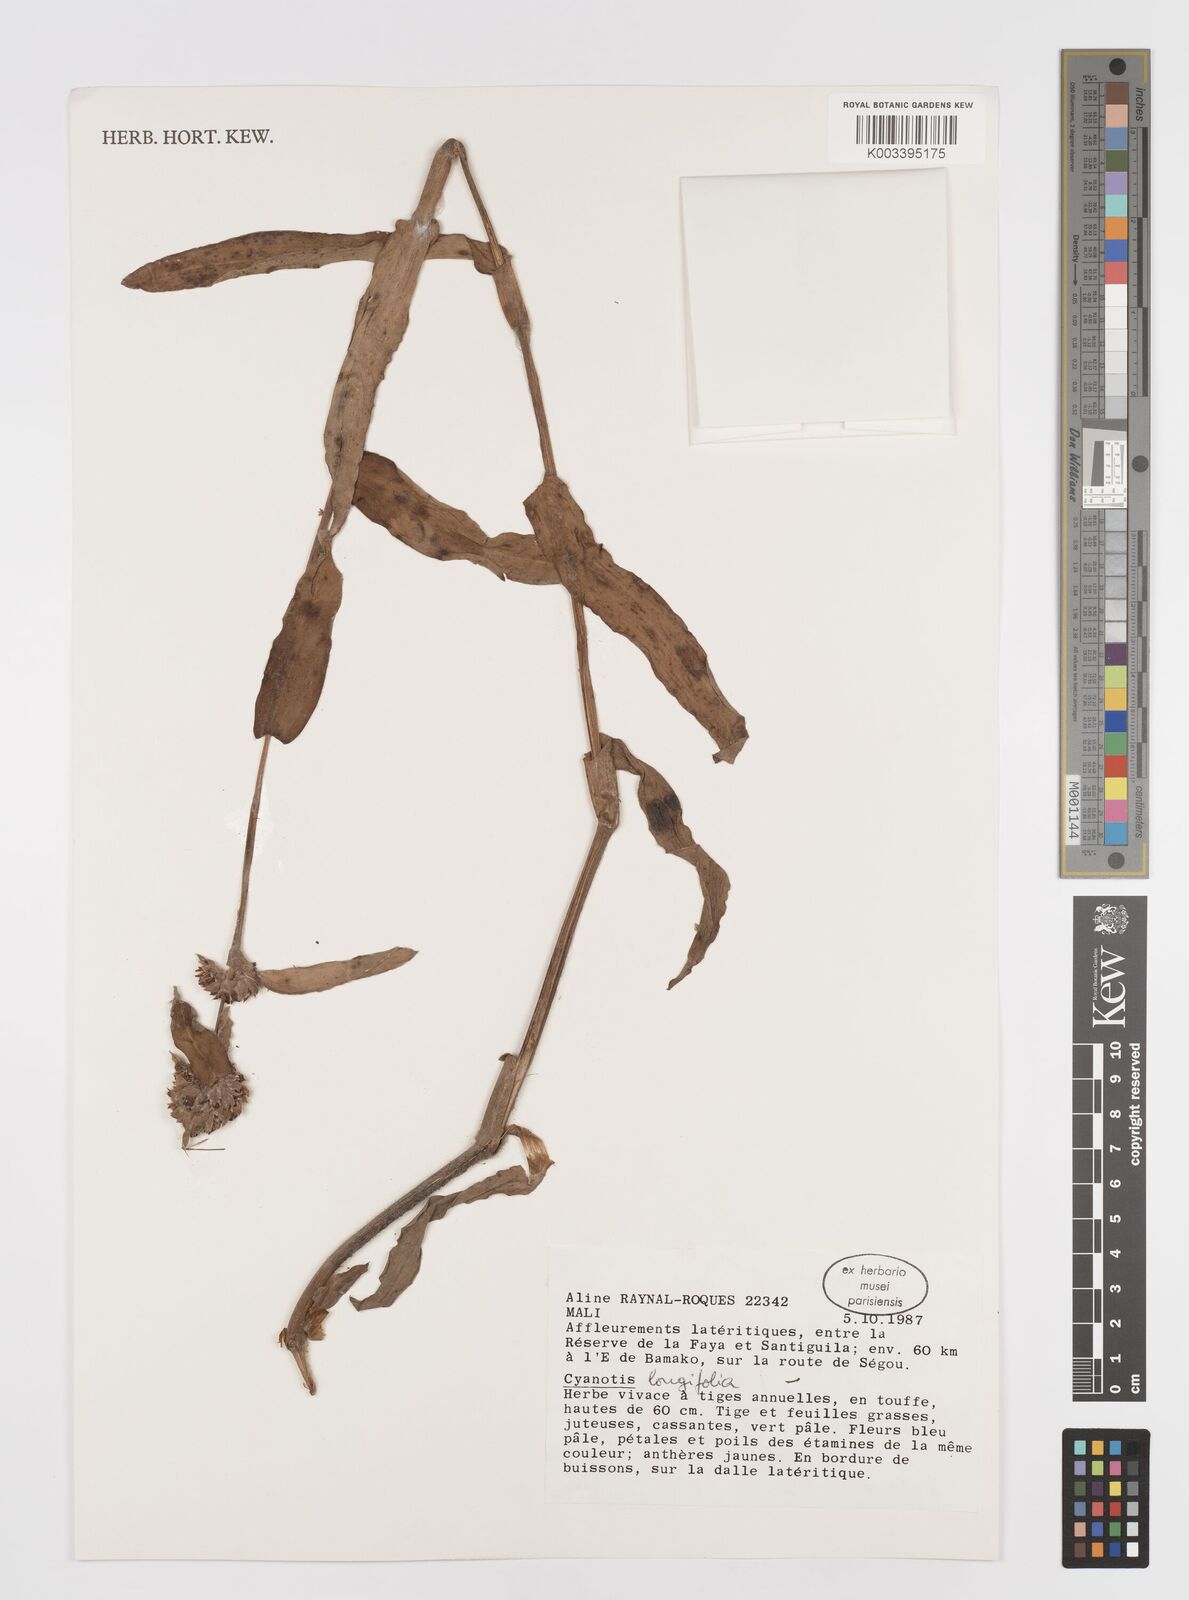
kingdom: Plantae
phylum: Tracheophyta
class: Liliopsida
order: Commelinales
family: Commelinaceae
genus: Cyanotis
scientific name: Cyanotis
